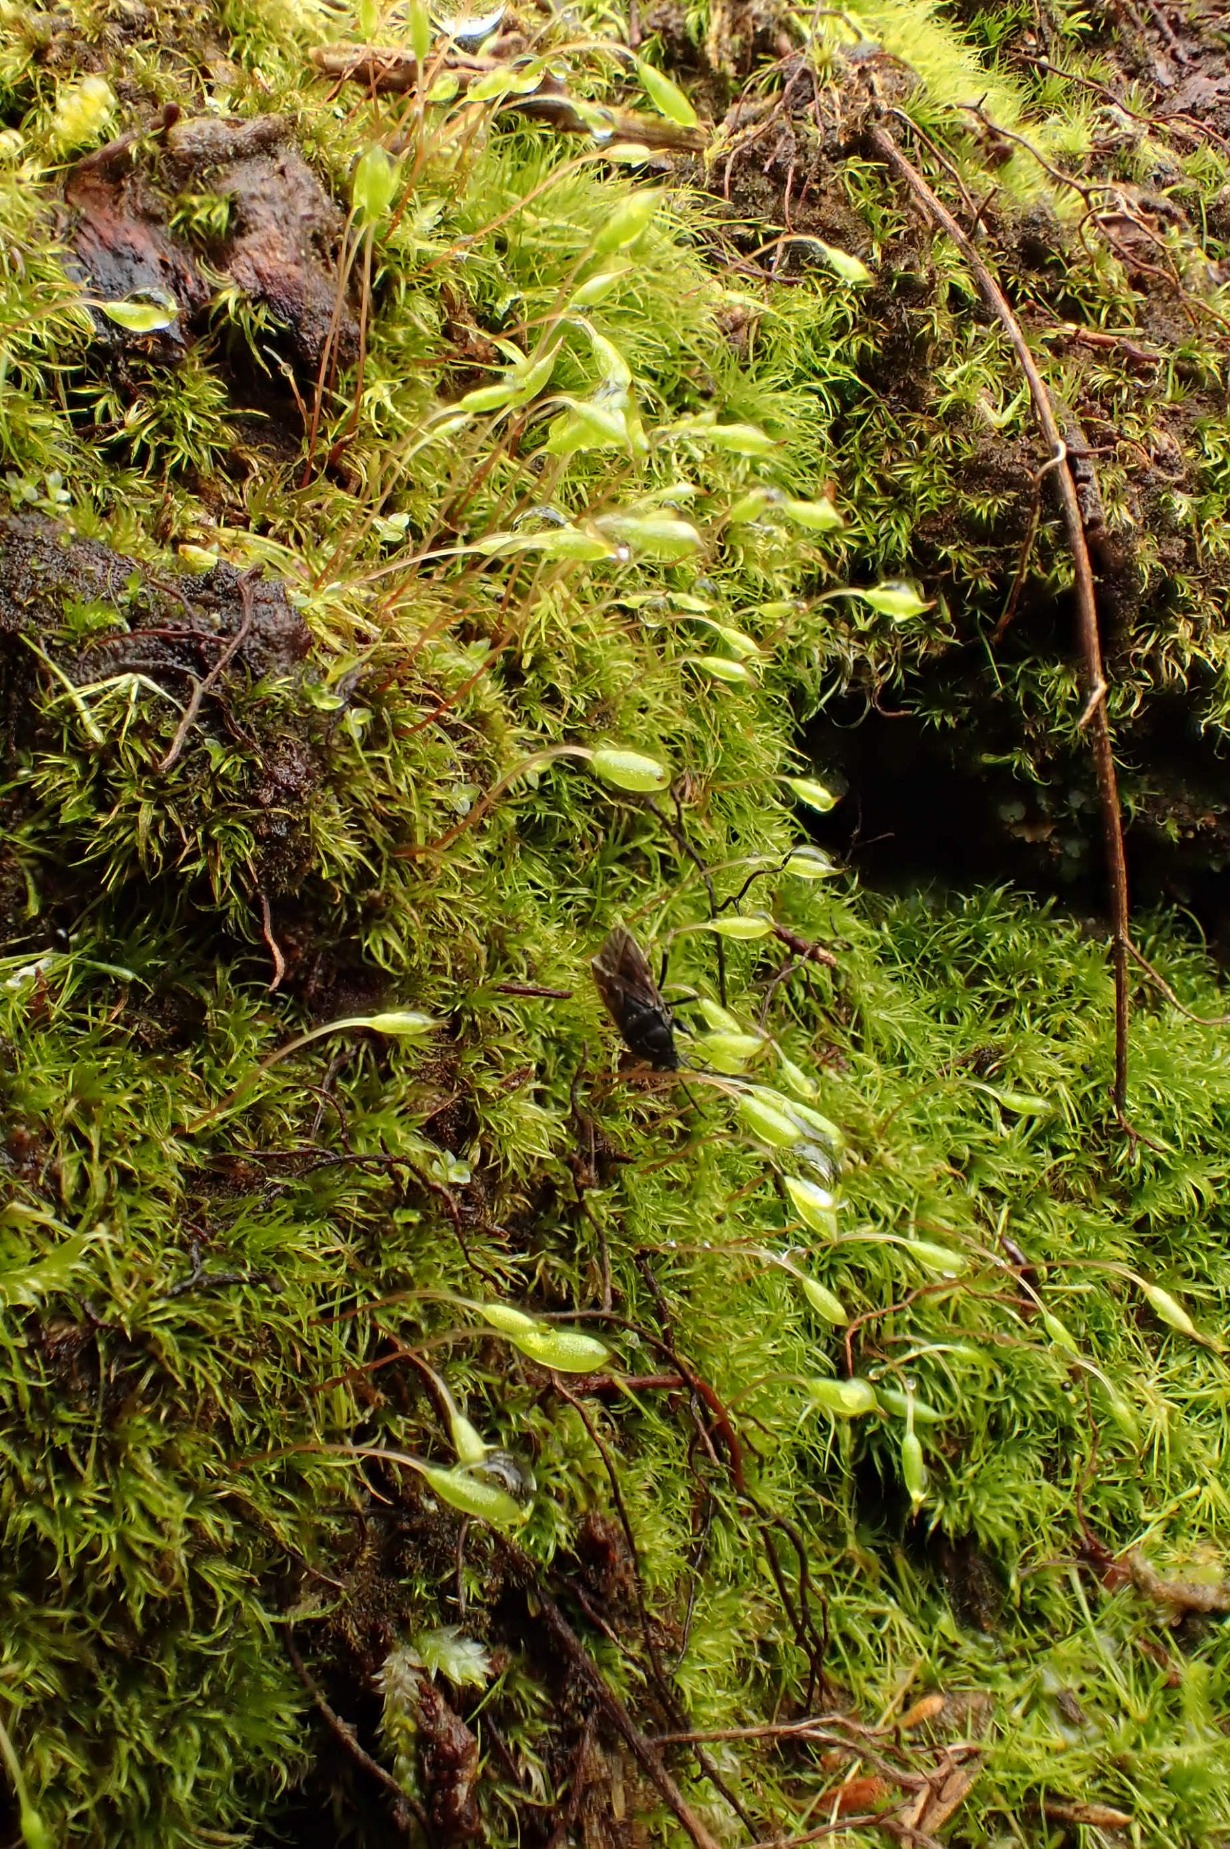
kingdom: Plantae
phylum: Bryophyta
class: Bryopsida
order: Orthodontiales
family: Orthodontiaceae
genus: Orthodontium
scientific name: Orthodontium lineare
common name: Smalbladet plysmos
